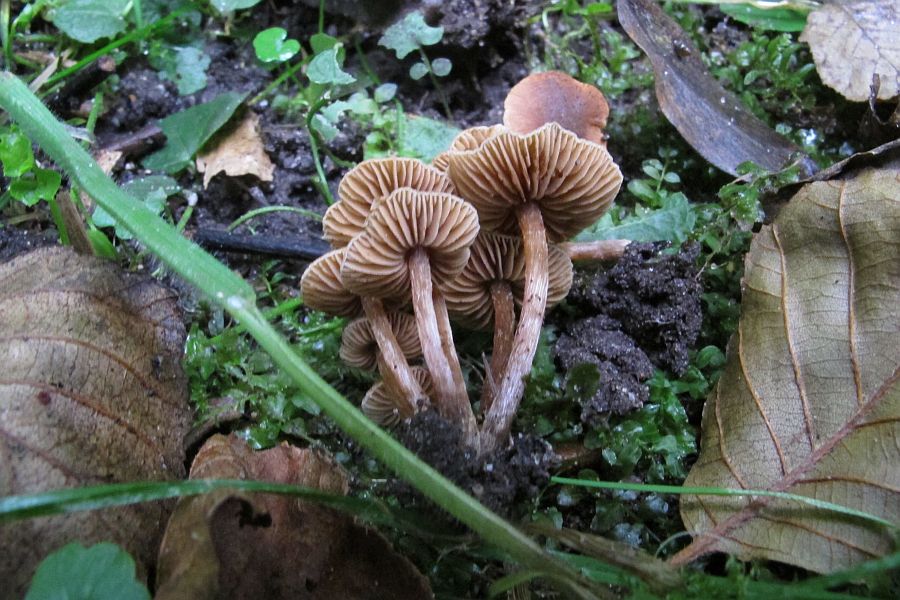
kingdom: Fungi
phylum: Basidiomycota
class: Agaricomycetes
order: Agaricales
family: Hymenogastraceae
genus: Naucoria
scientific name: Naucoria scolecina
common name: mørk elle-knaphat
